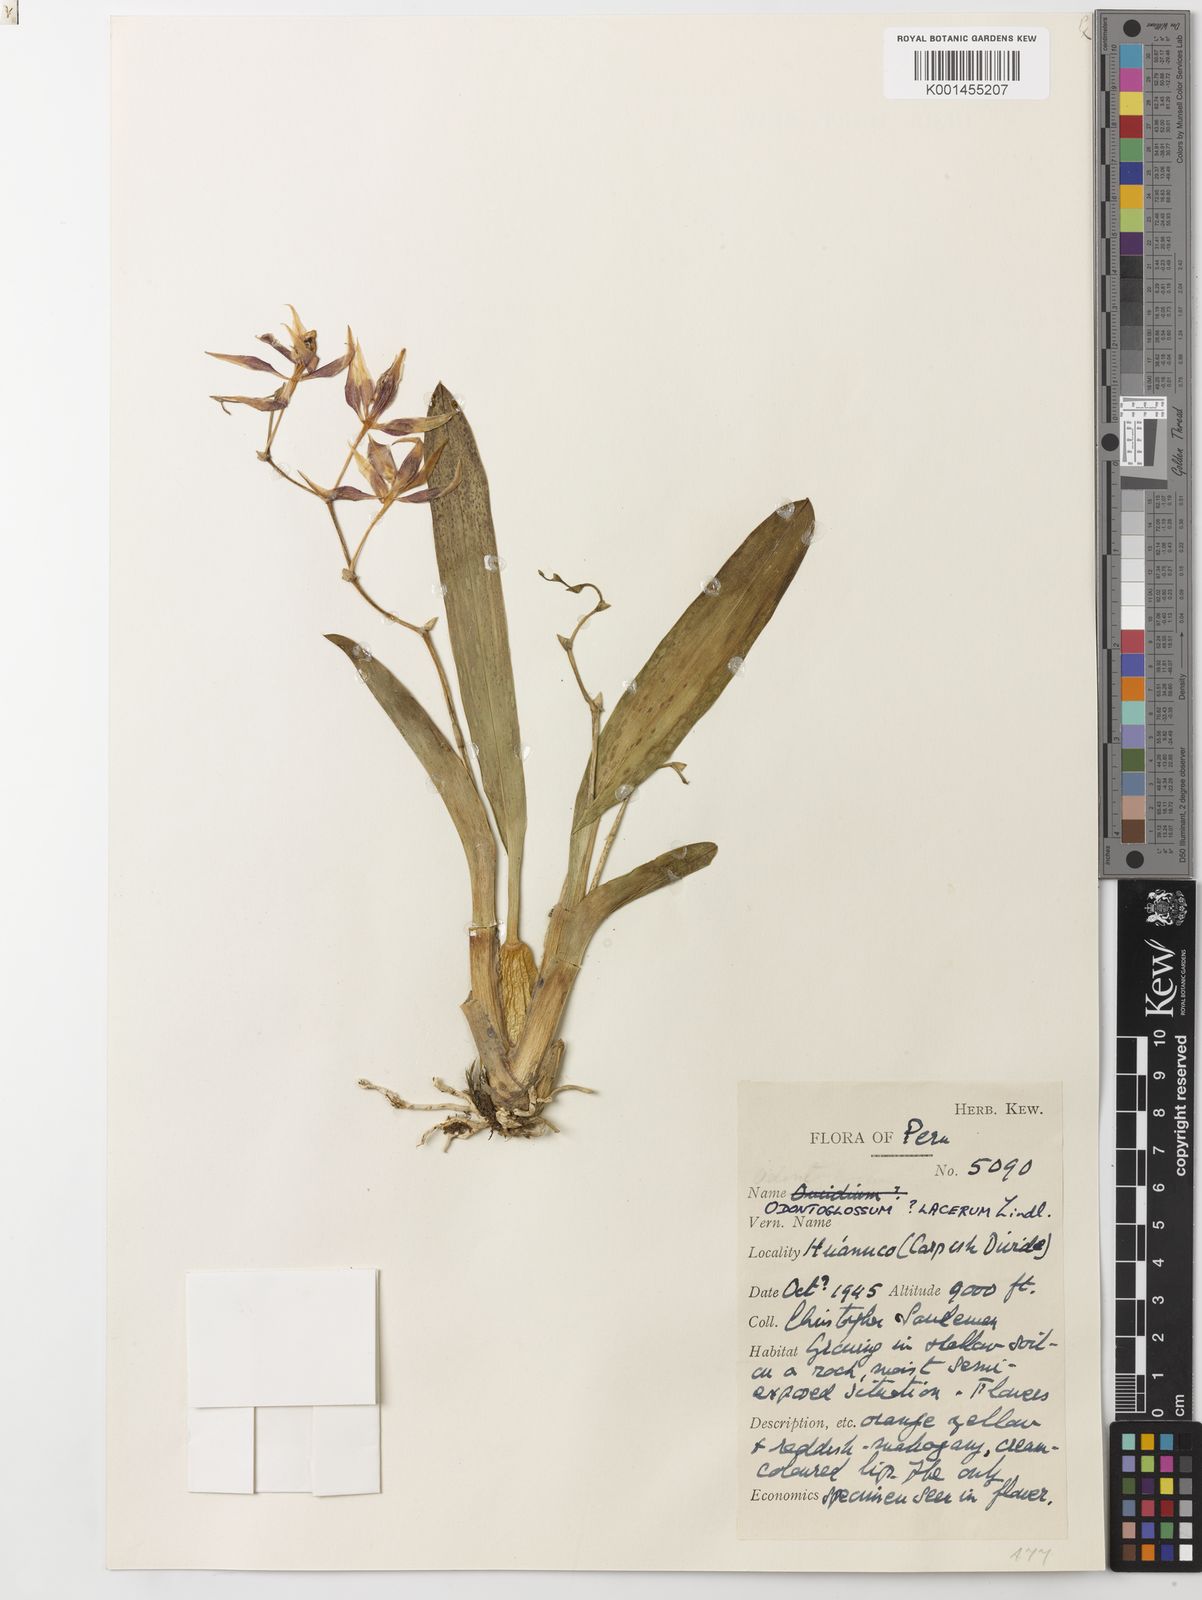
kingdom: Plantae
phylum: Tracheophyta
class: Liliopsida
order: Asparagales
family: Orchidaceae
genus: Oncidium
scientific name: Oncidium epidendroides
